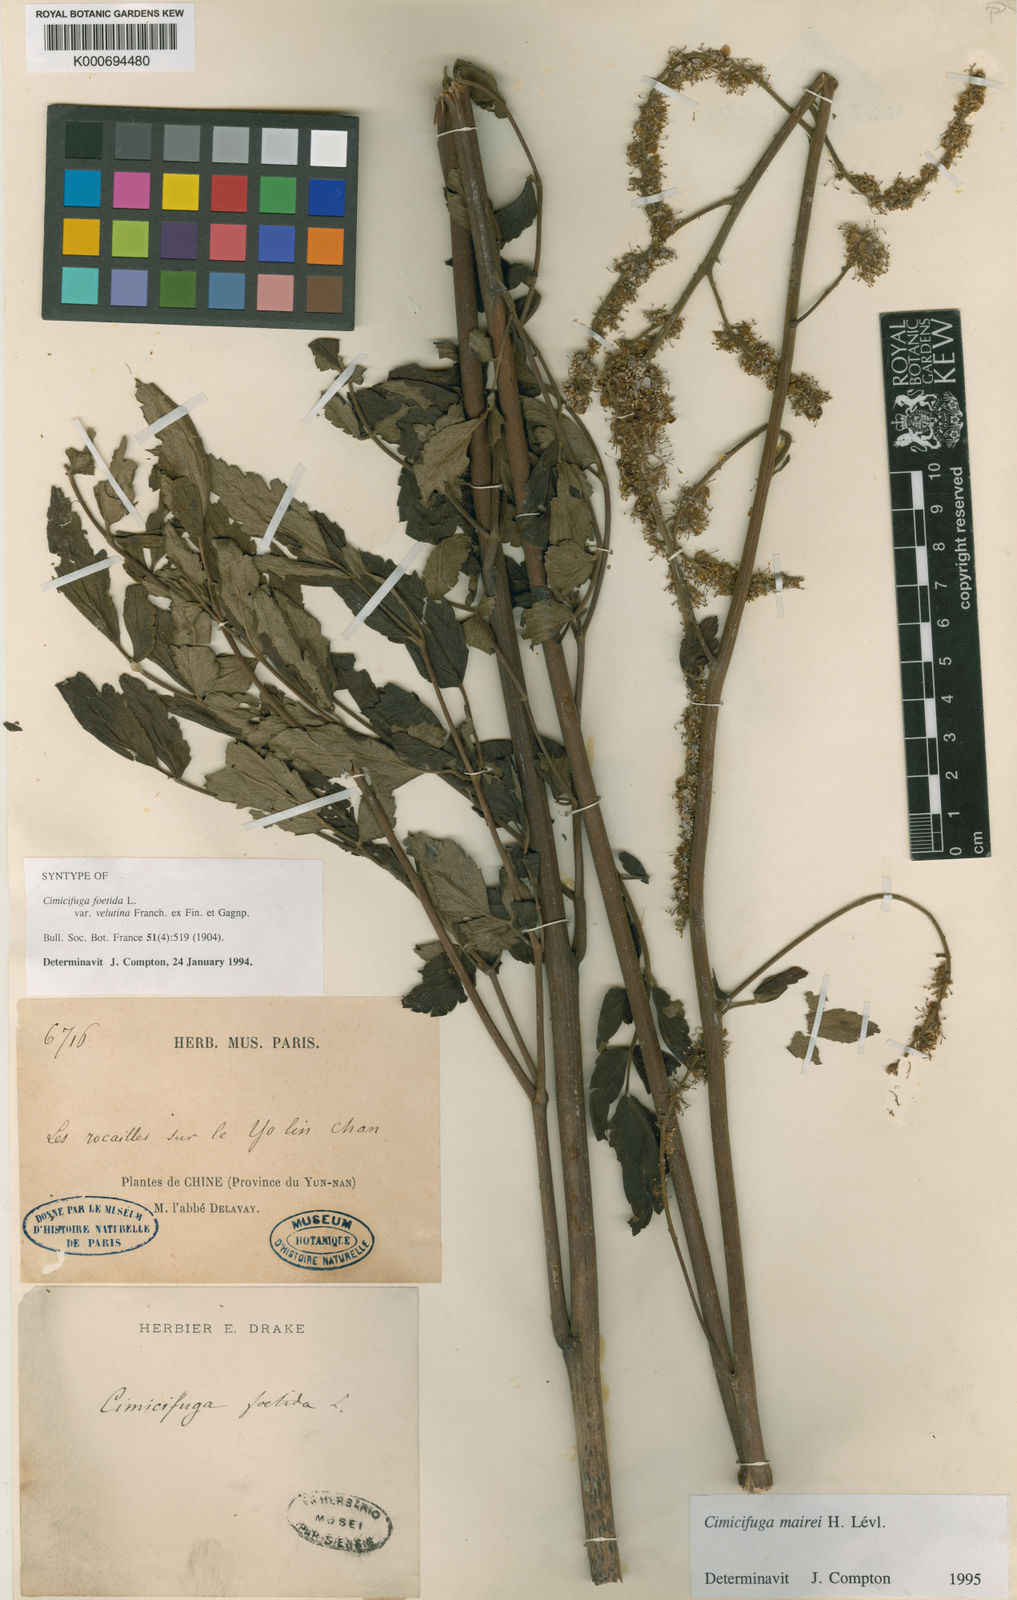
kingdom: Plantae
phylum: Tracheophyta
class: Magnoliopsida
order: Ranunculales
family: Ranunculaceae
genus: Actaea
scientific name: Actaea cimicifuga
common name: Chinese cimicifuga
